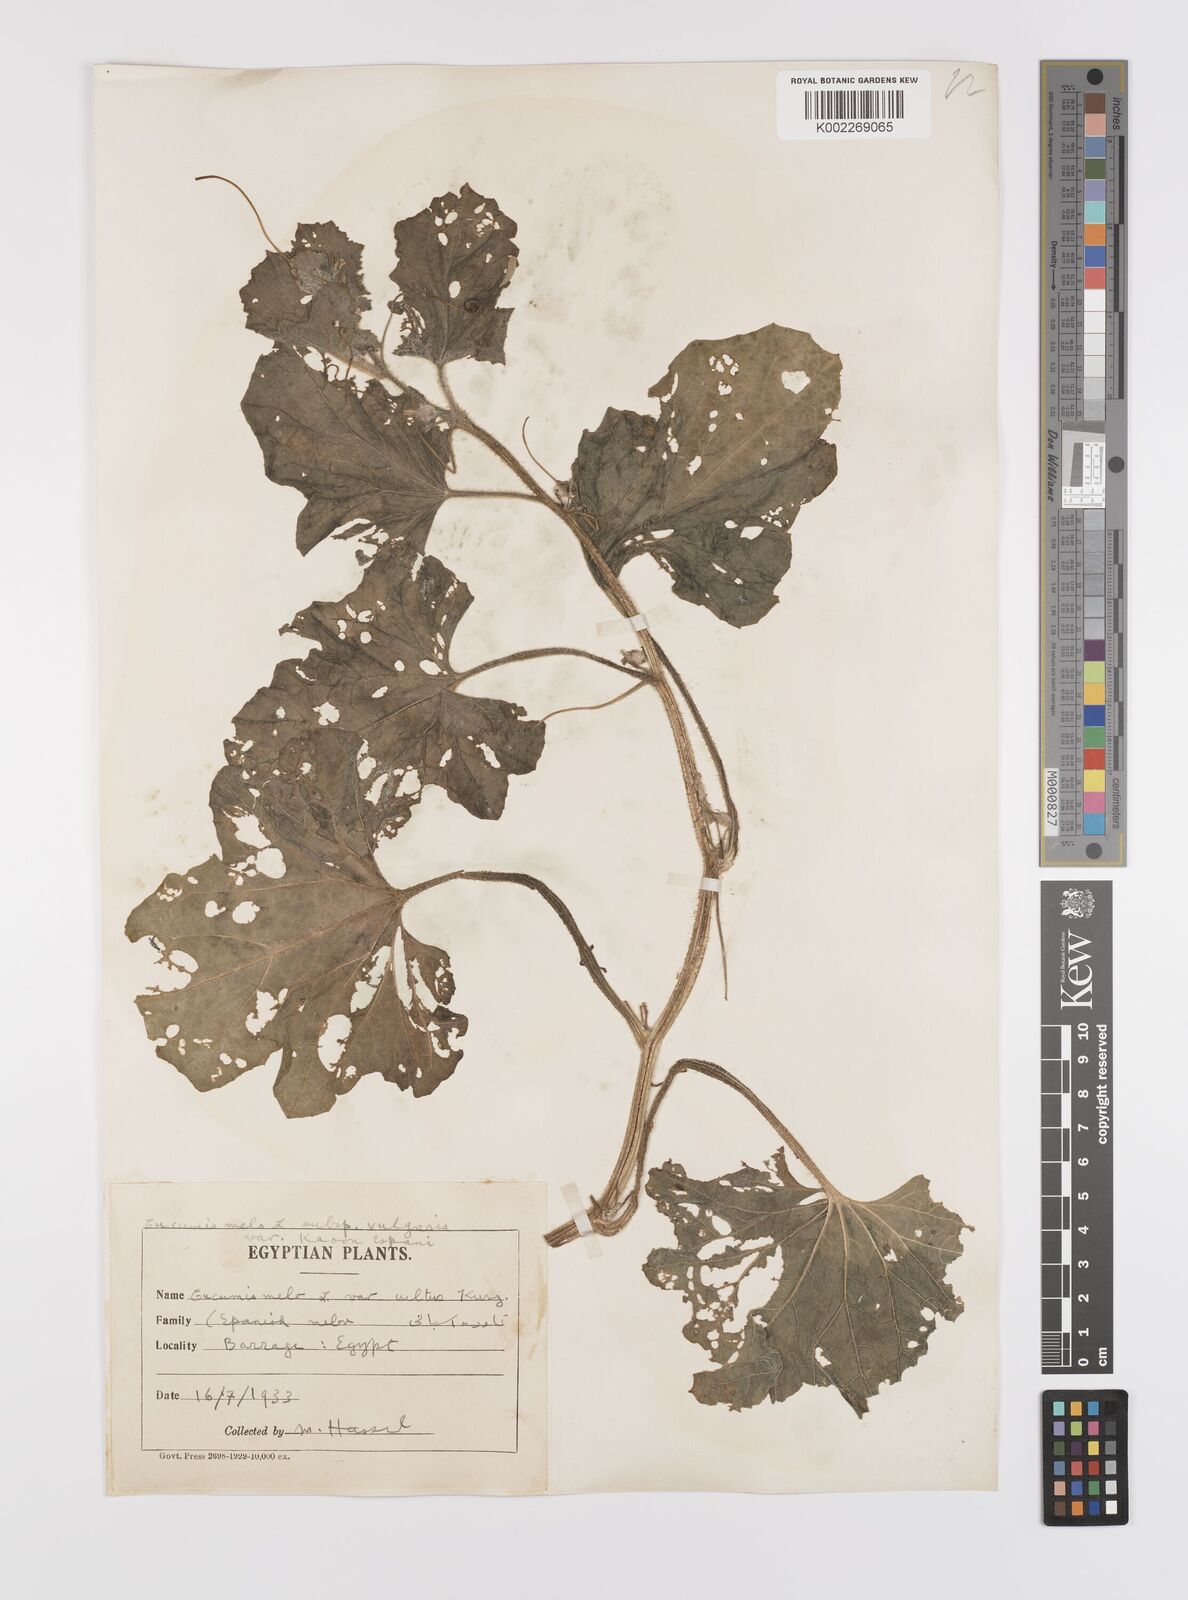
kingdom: Plantae
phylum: Tracheophyta
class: Magnoliopsida
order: Cucurbitales
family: Cucurbitaceae
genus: Cucumis
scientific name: Cucumis melo
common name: Melon
